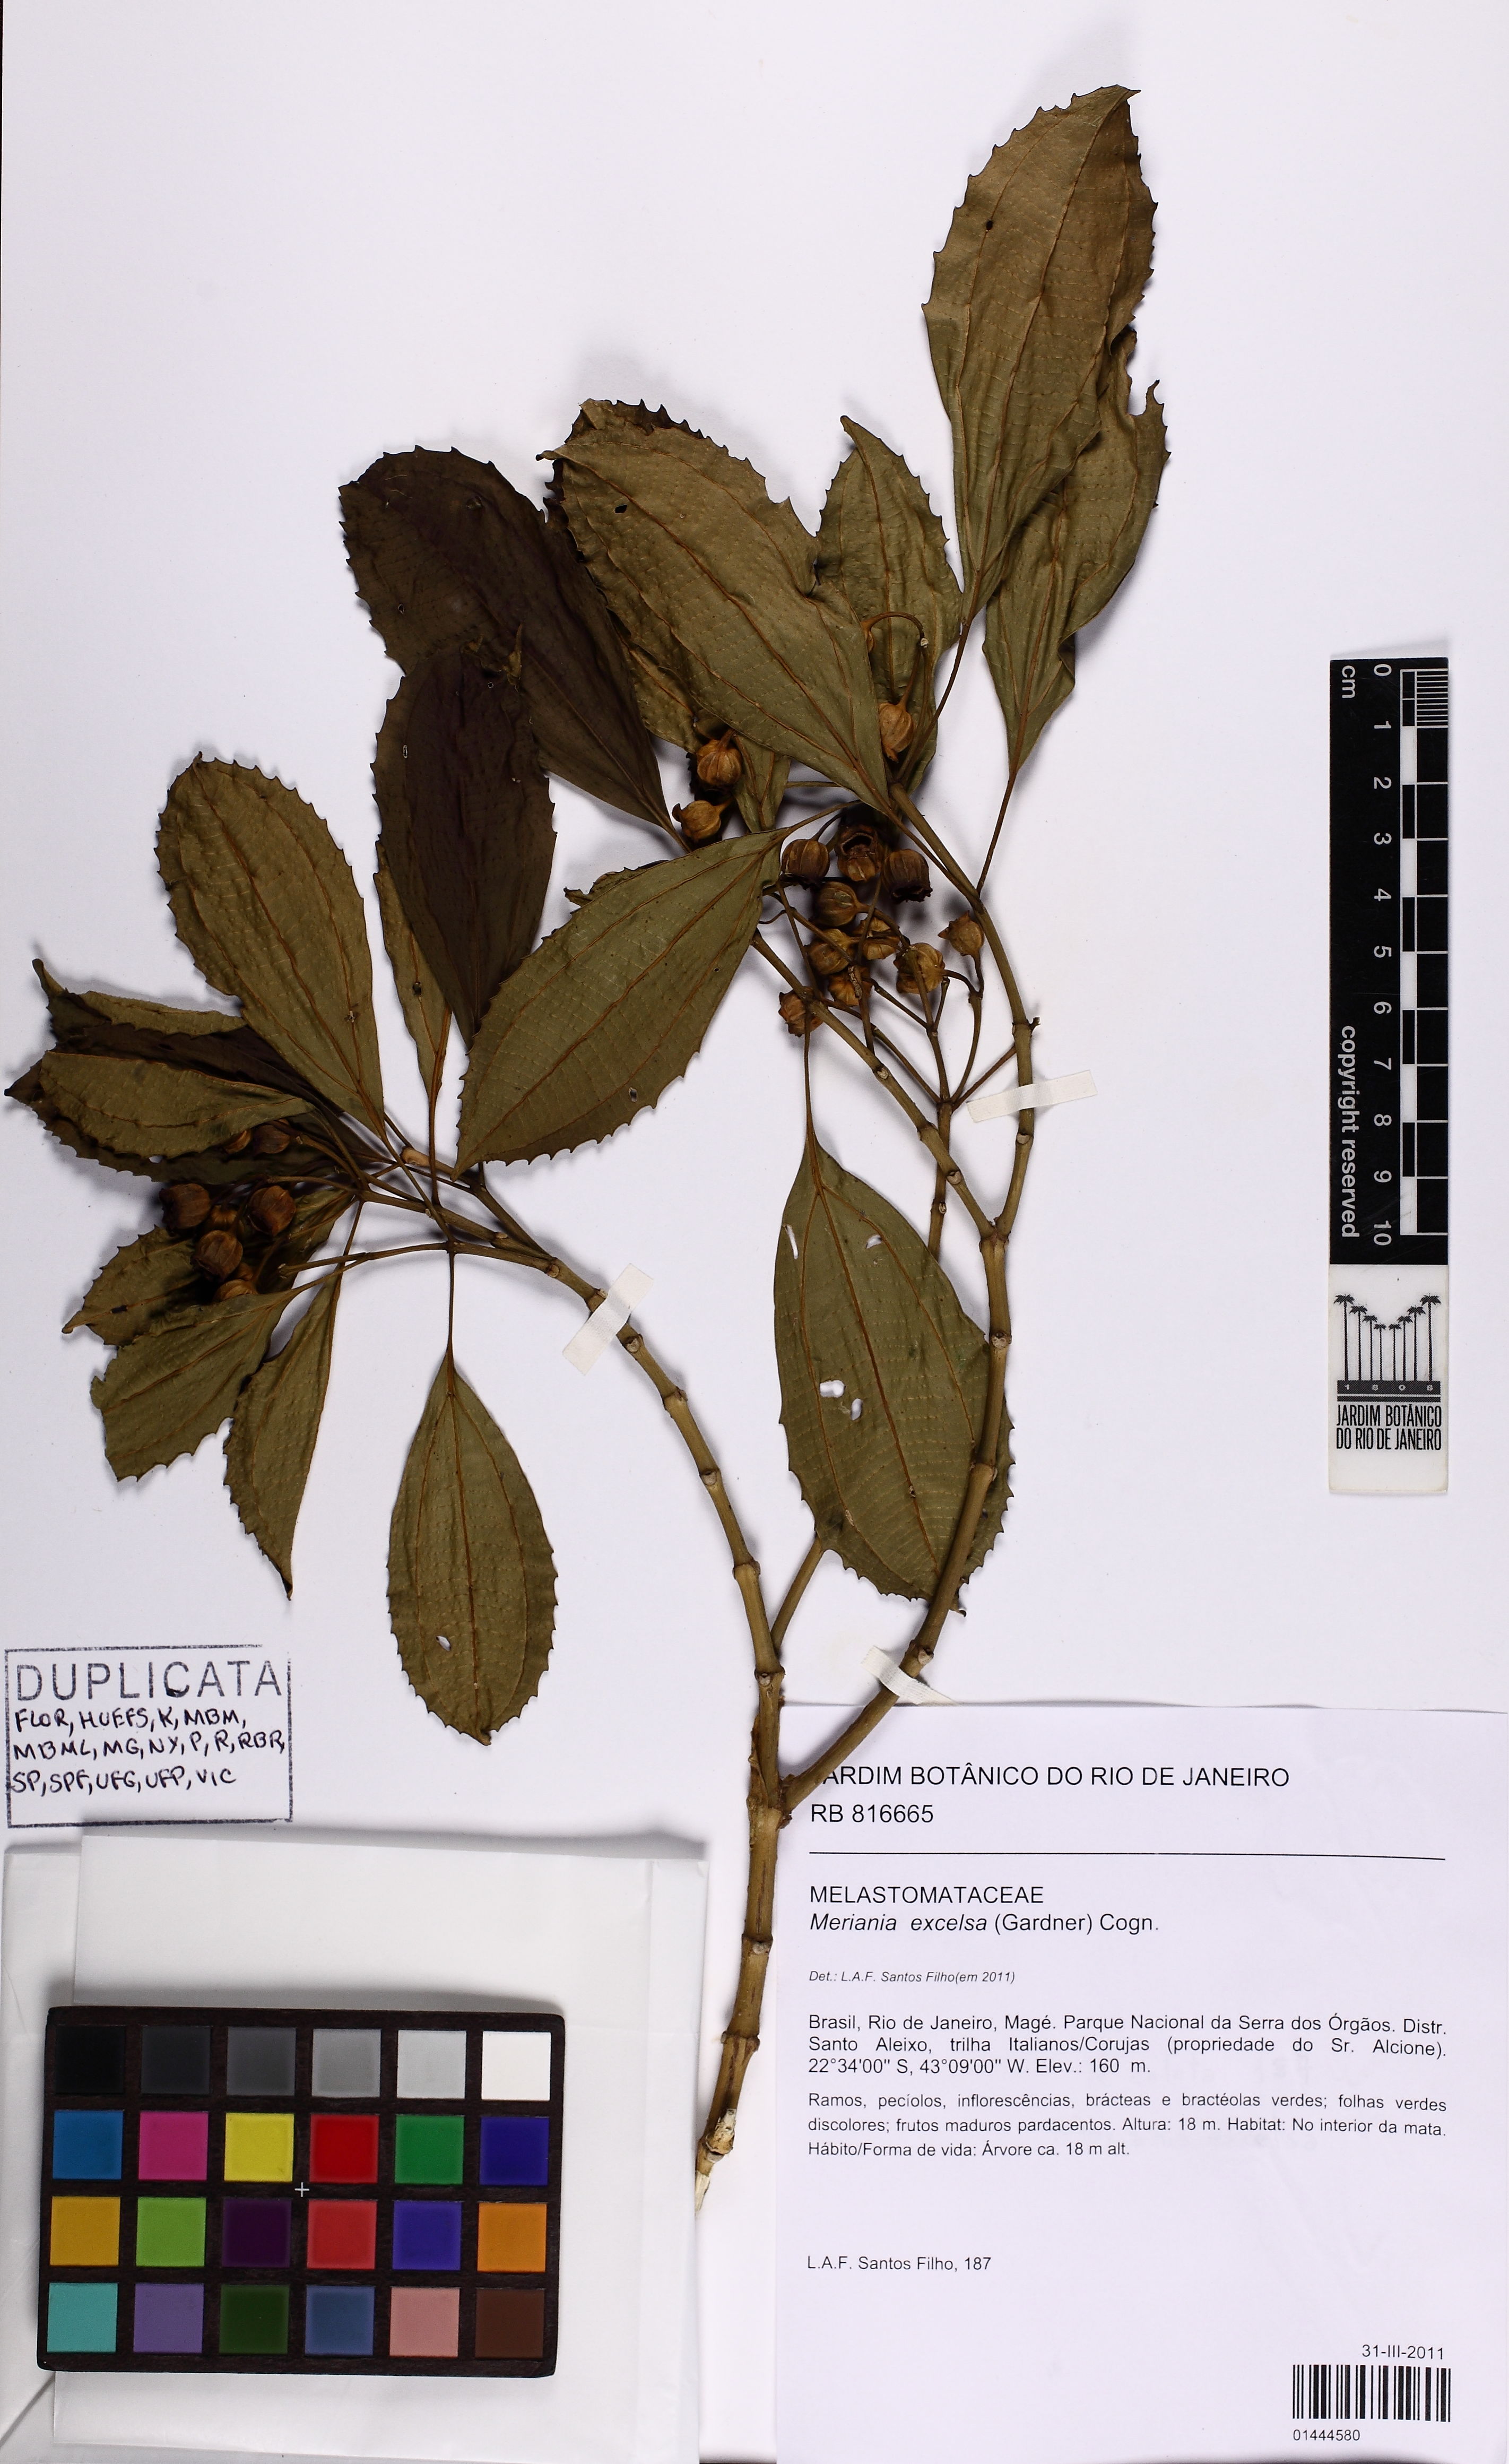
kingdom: Plantae
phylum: Tracheophyta
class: Magnoliopsida
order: Myrtales
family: Melastomataceae
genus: Meriania
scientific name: Meriania excelsa
